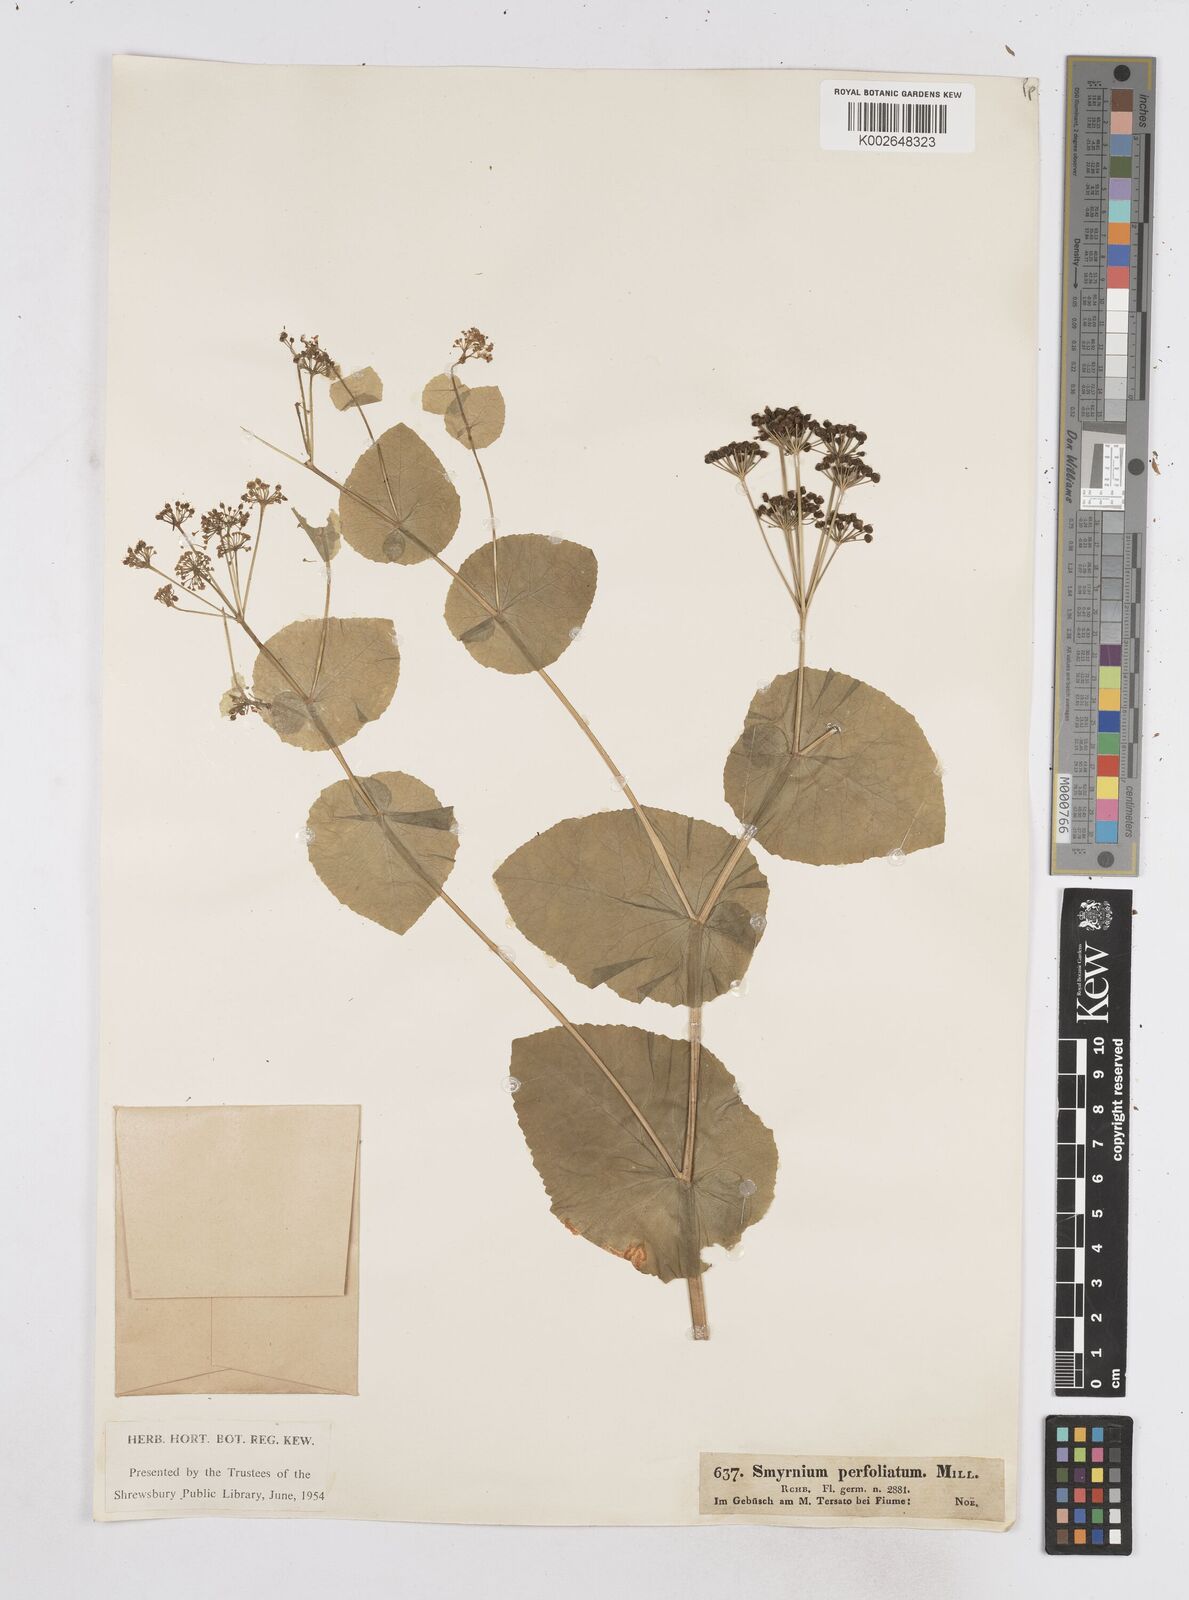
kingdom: Plantae
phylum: Tracheophyta
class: Magnoliopsida
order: Apiales
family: Apiaceae
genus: Smyrnium
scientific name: Smyrnium perfoliatum
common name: Perfoliate alexanders
